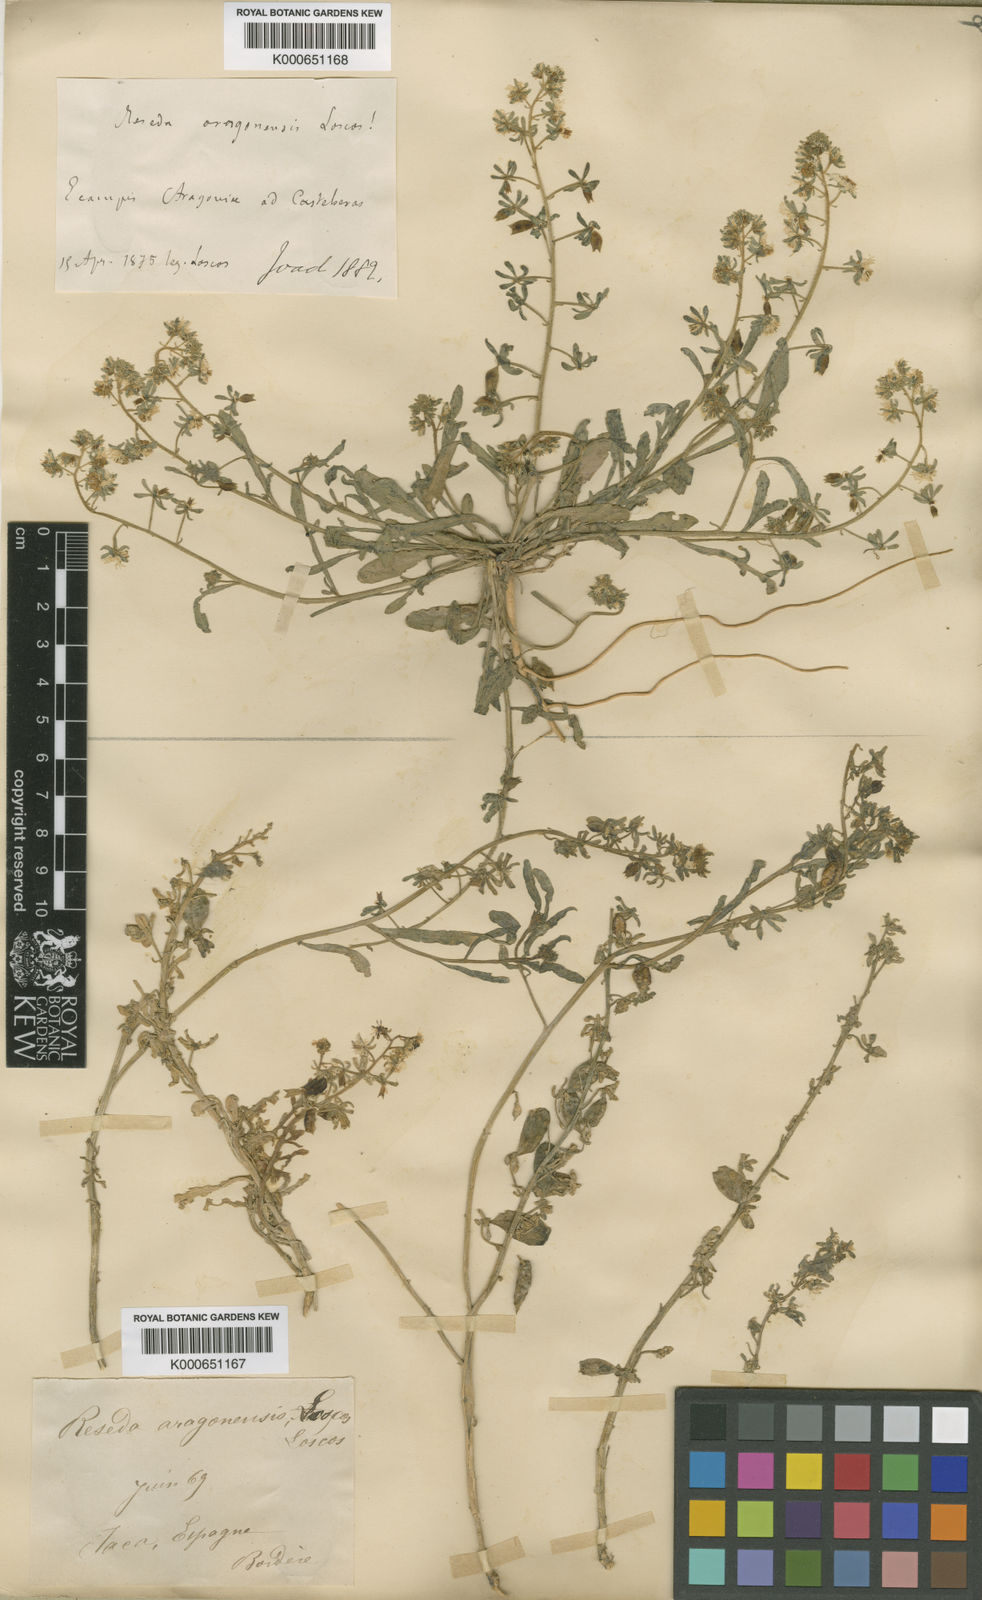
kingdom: Plantae
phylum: Tracheophyta
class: Magnoliopsida
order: Brassicales
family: Resedaceae
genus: Reseda
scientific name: Reseda phyteuma
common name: Corn mignonette
